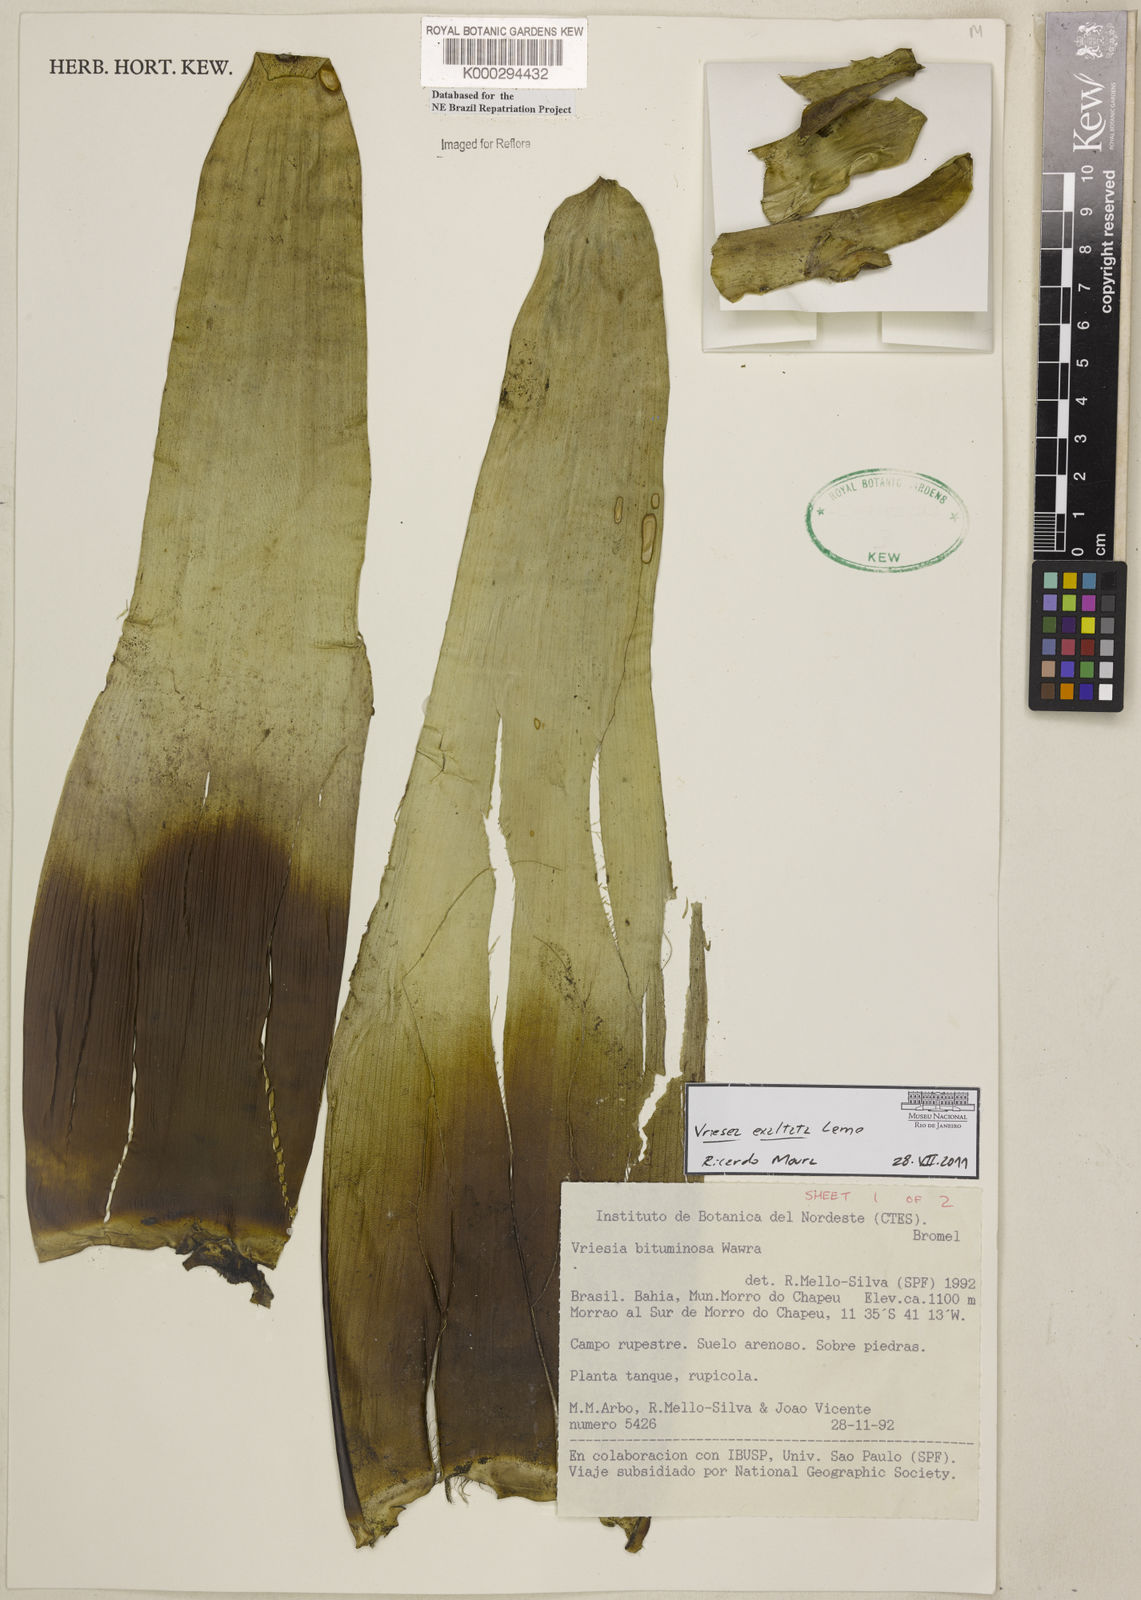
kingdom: Plantae
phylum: Tracheophyta
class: Liliopsida
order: Poales
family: Bromeliaceae
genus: Vriesea
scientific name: Vriesea bituminosa
